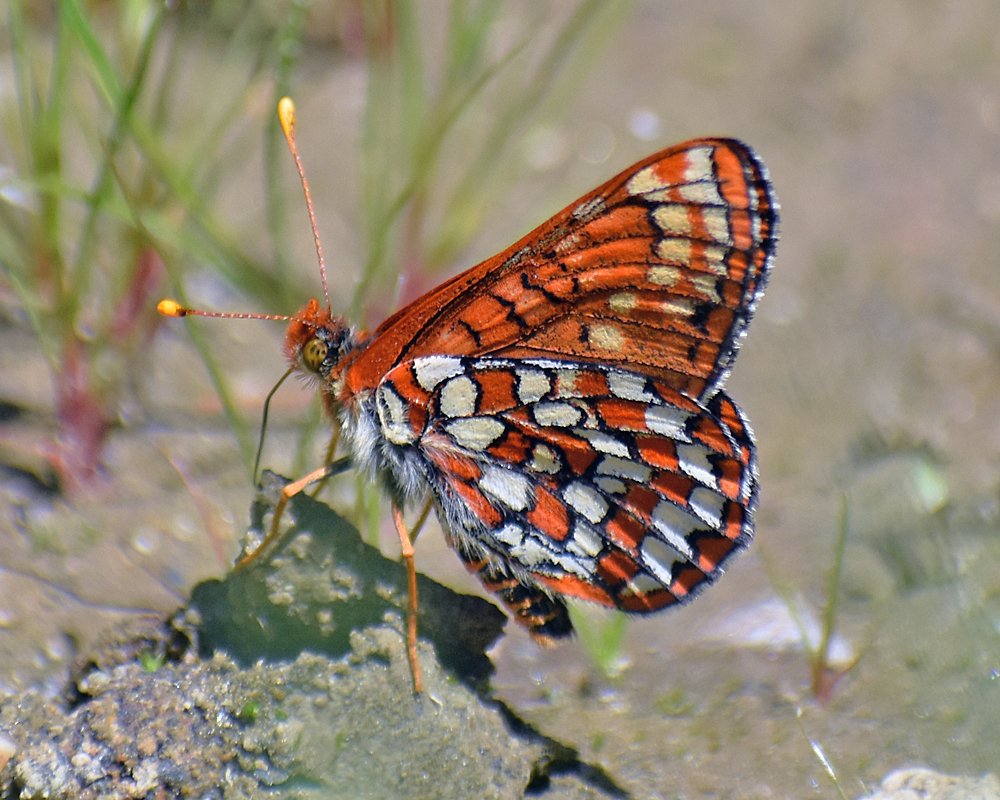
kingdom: Animalia
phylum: Arthropoda
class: Insecta
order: Lepidoptera
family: Nymphalidae
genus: Occidryas
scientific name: Occidryas anicia
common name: Anicia Checkerspot
